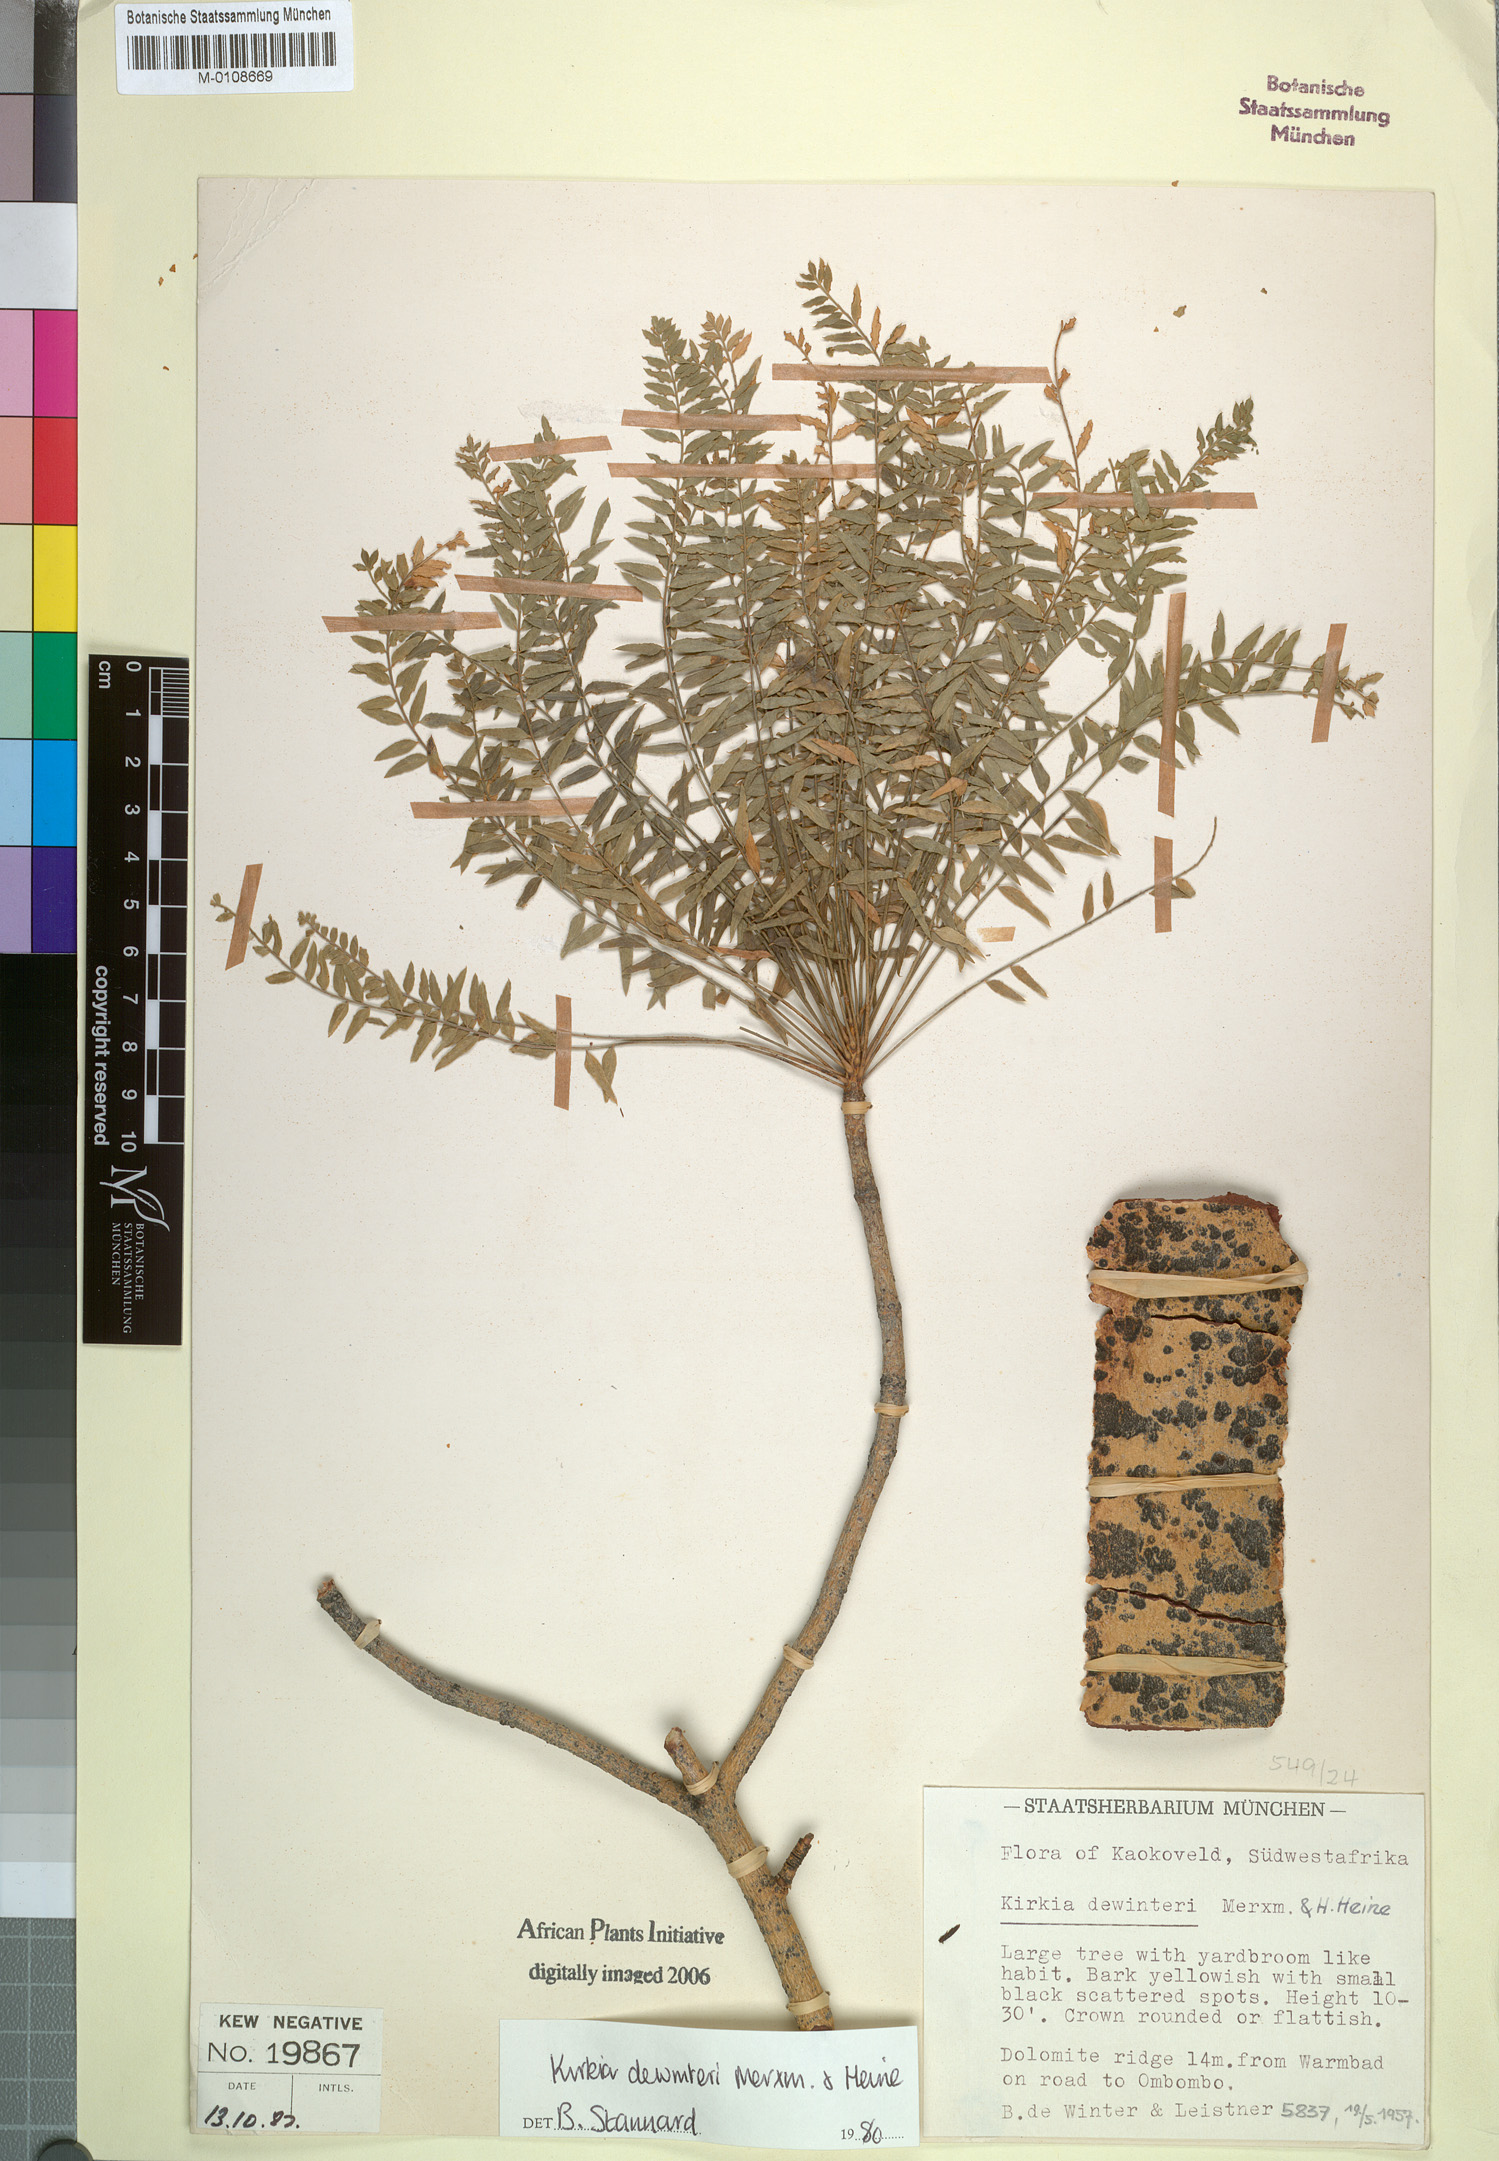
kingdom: Plantae
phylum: Tracheophyta
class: Magnoliopsida
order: Sapindales
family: Kirkiaceae
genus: Kirkia
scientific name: Kirkia dewinteri
